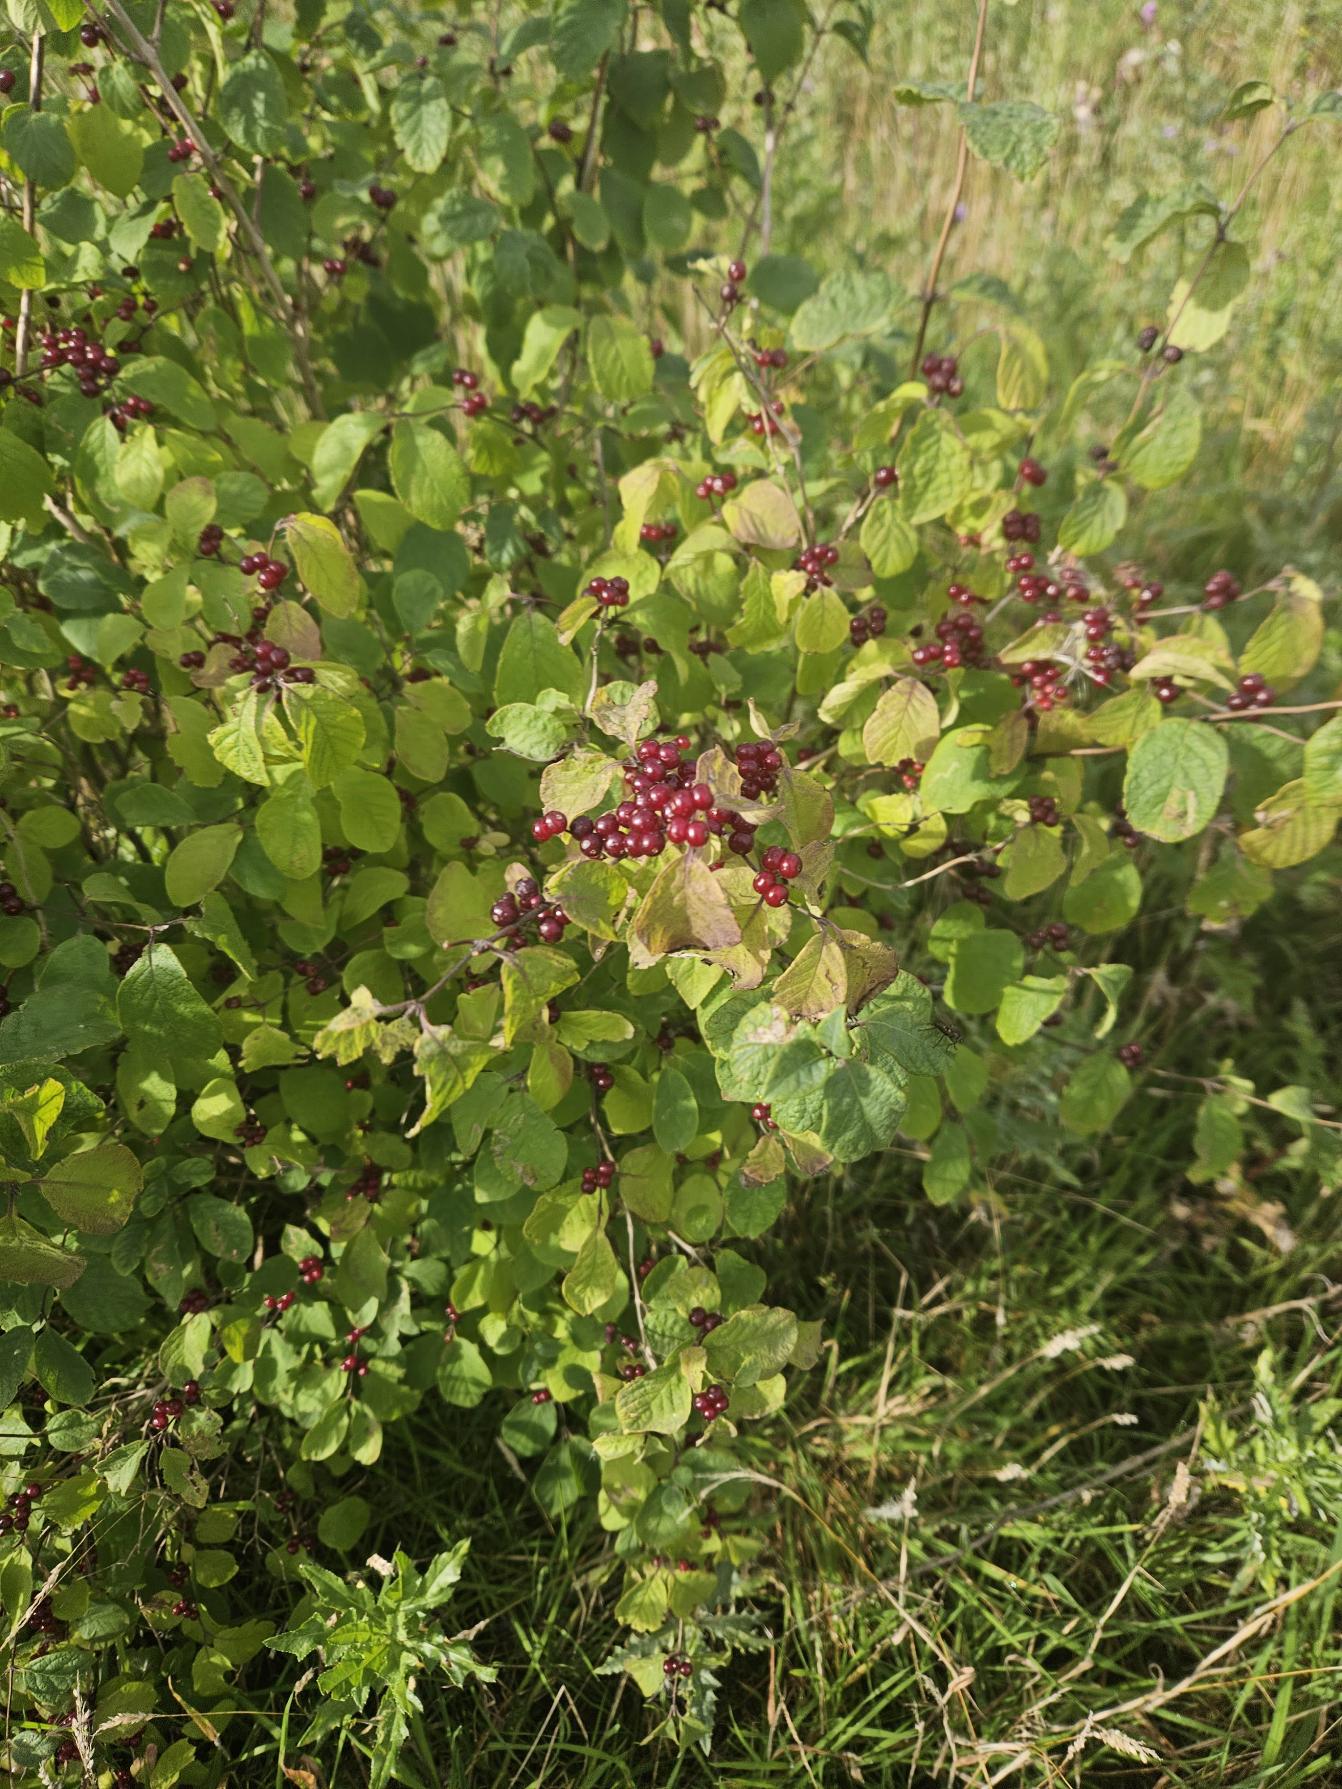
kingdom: Plantae
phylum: Tracheophyta
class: Magnoliopsida
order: Dipsacales
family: Caprifoliaceae
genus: Lonicera
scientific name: Lonicera xylosteum
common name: Dunet gedeblad
